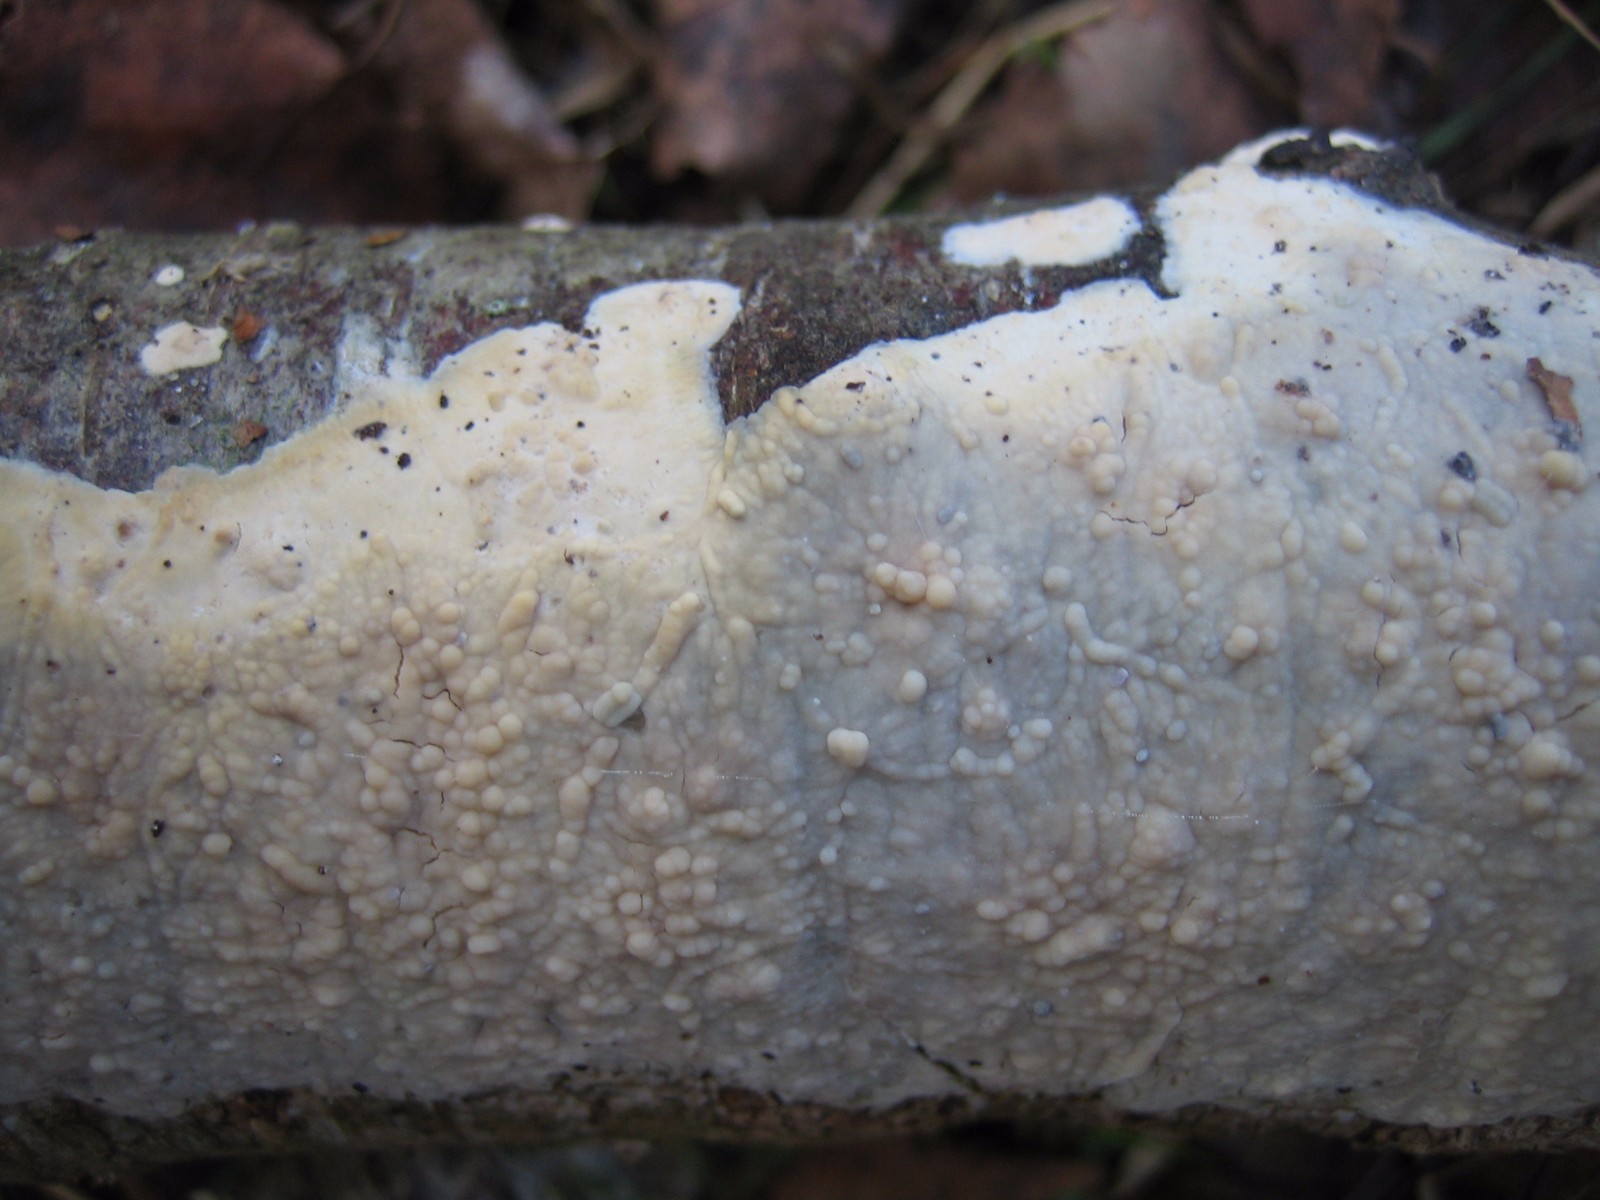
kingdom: Fungi
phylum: Basidiomycota
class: Agaricomycetes
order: Agaricales
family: Radulomycetaceae
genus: Radulomyces
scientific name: Radulomyces confluens
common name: glat naftalinskind
